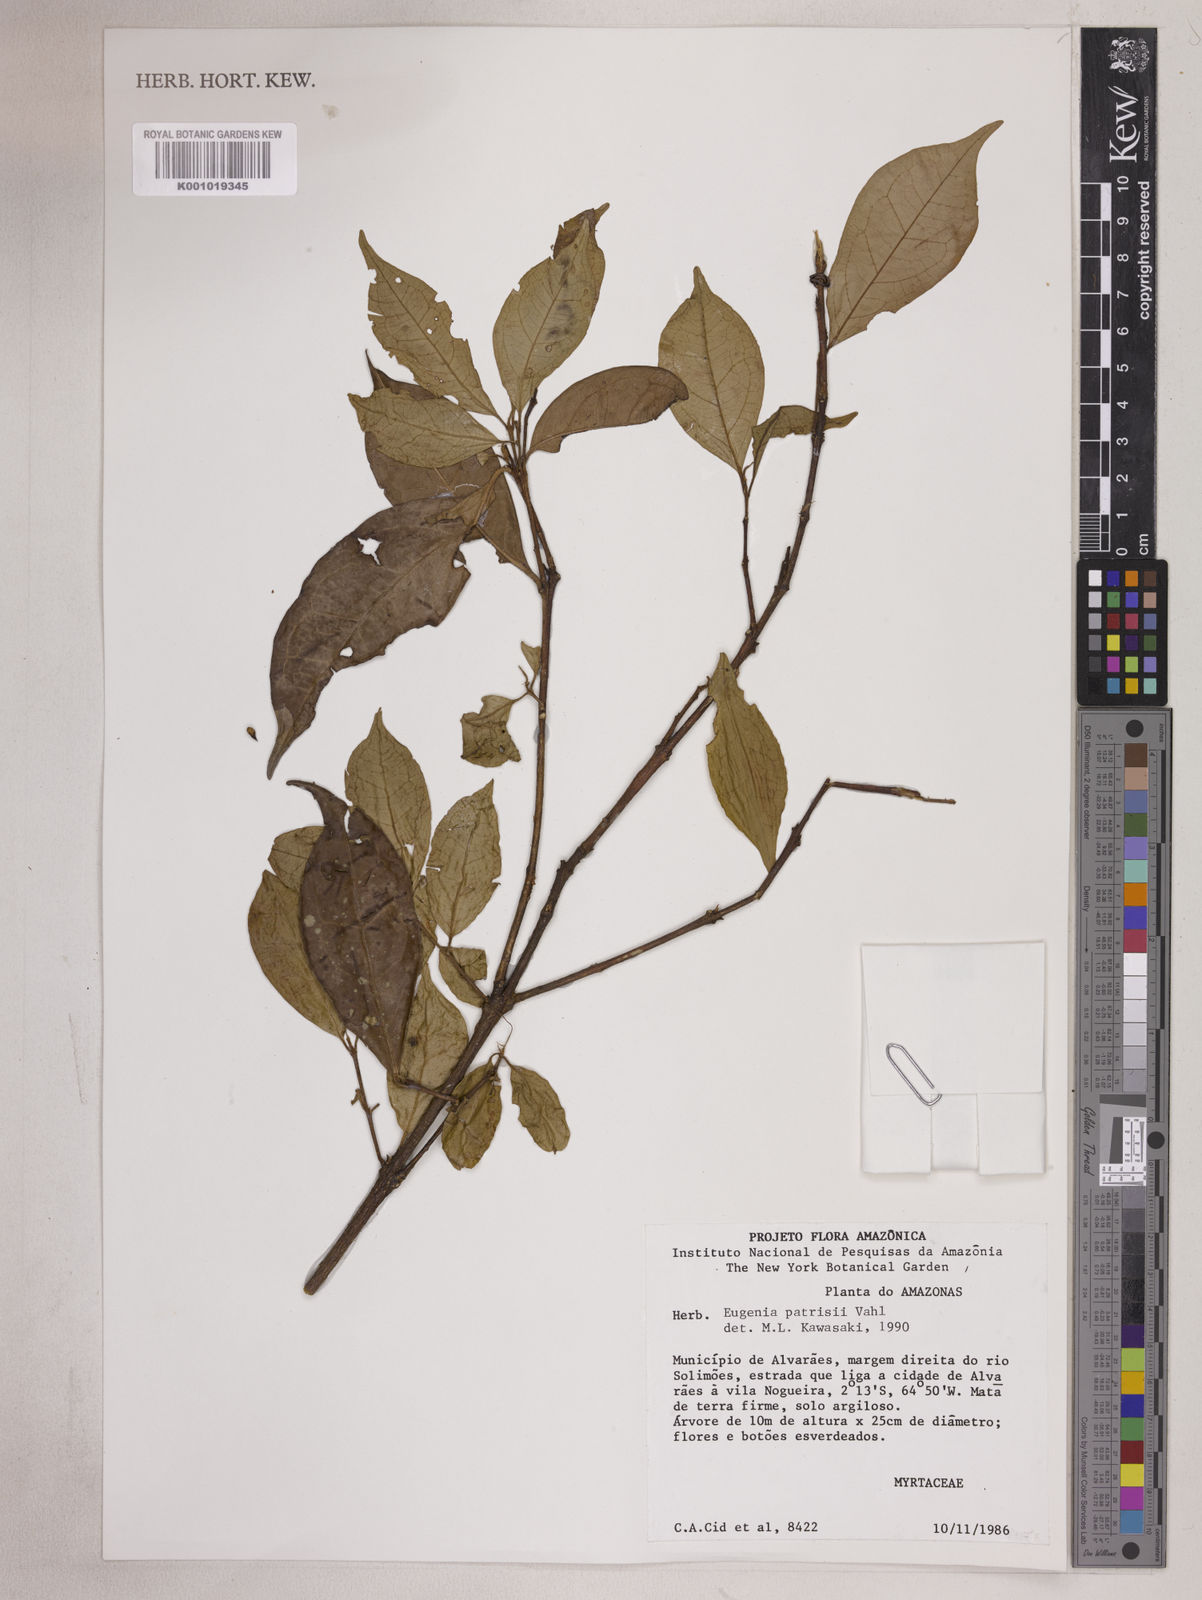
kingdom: Plantae
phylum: Tracheophyta
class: Magnoliopsida
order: Myrtales
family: Myrtaceae
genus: Eugenia
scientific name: Eugenia patrisii
